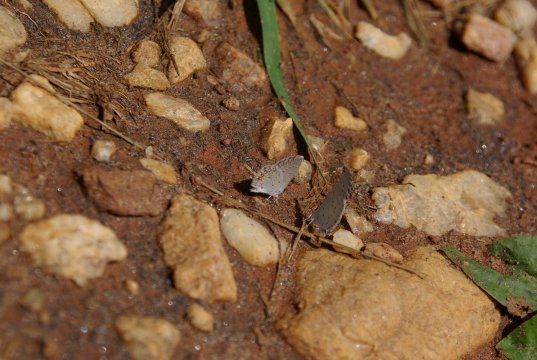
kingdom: Animalia
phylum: Arthropoda
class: Insecta
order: Lepidoptera
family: Lycaenidae
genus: Elkalyce
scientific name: Elkalyce comyntas
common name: Eastern Tailed-Blue
